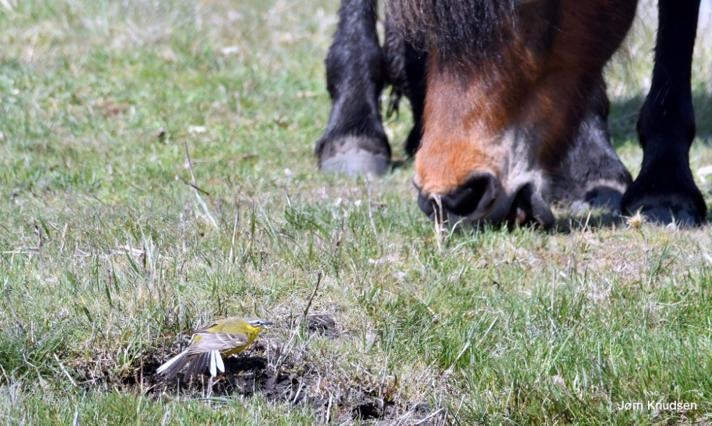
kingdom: Animalia
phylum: Chordata
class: Aves
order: Passeriformes
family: Motacillidae
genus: Motacilla
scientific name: Motacilla flava
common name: Gul vipstjert
